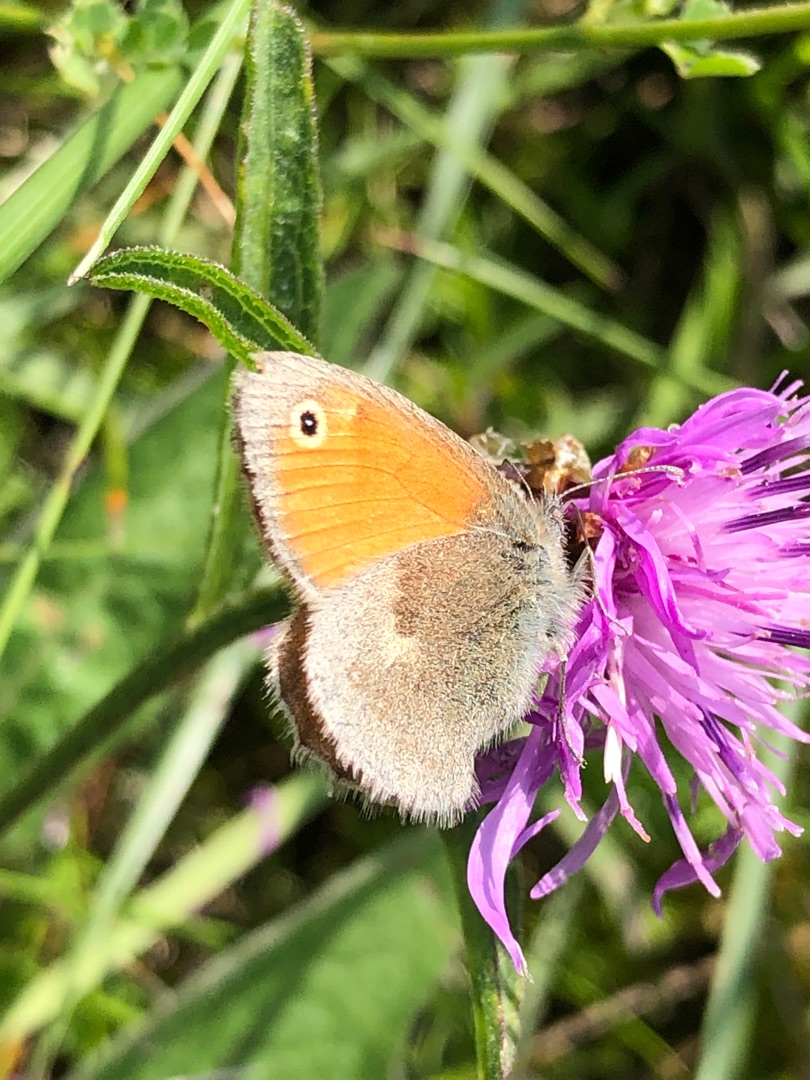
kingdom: Animalia
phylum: Arthropoda
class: Insecta
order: Lepidoptera
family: Nymphalidae
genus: Coenonympha
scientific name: Coenonympha pamphilus
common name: Okkergul randøje
